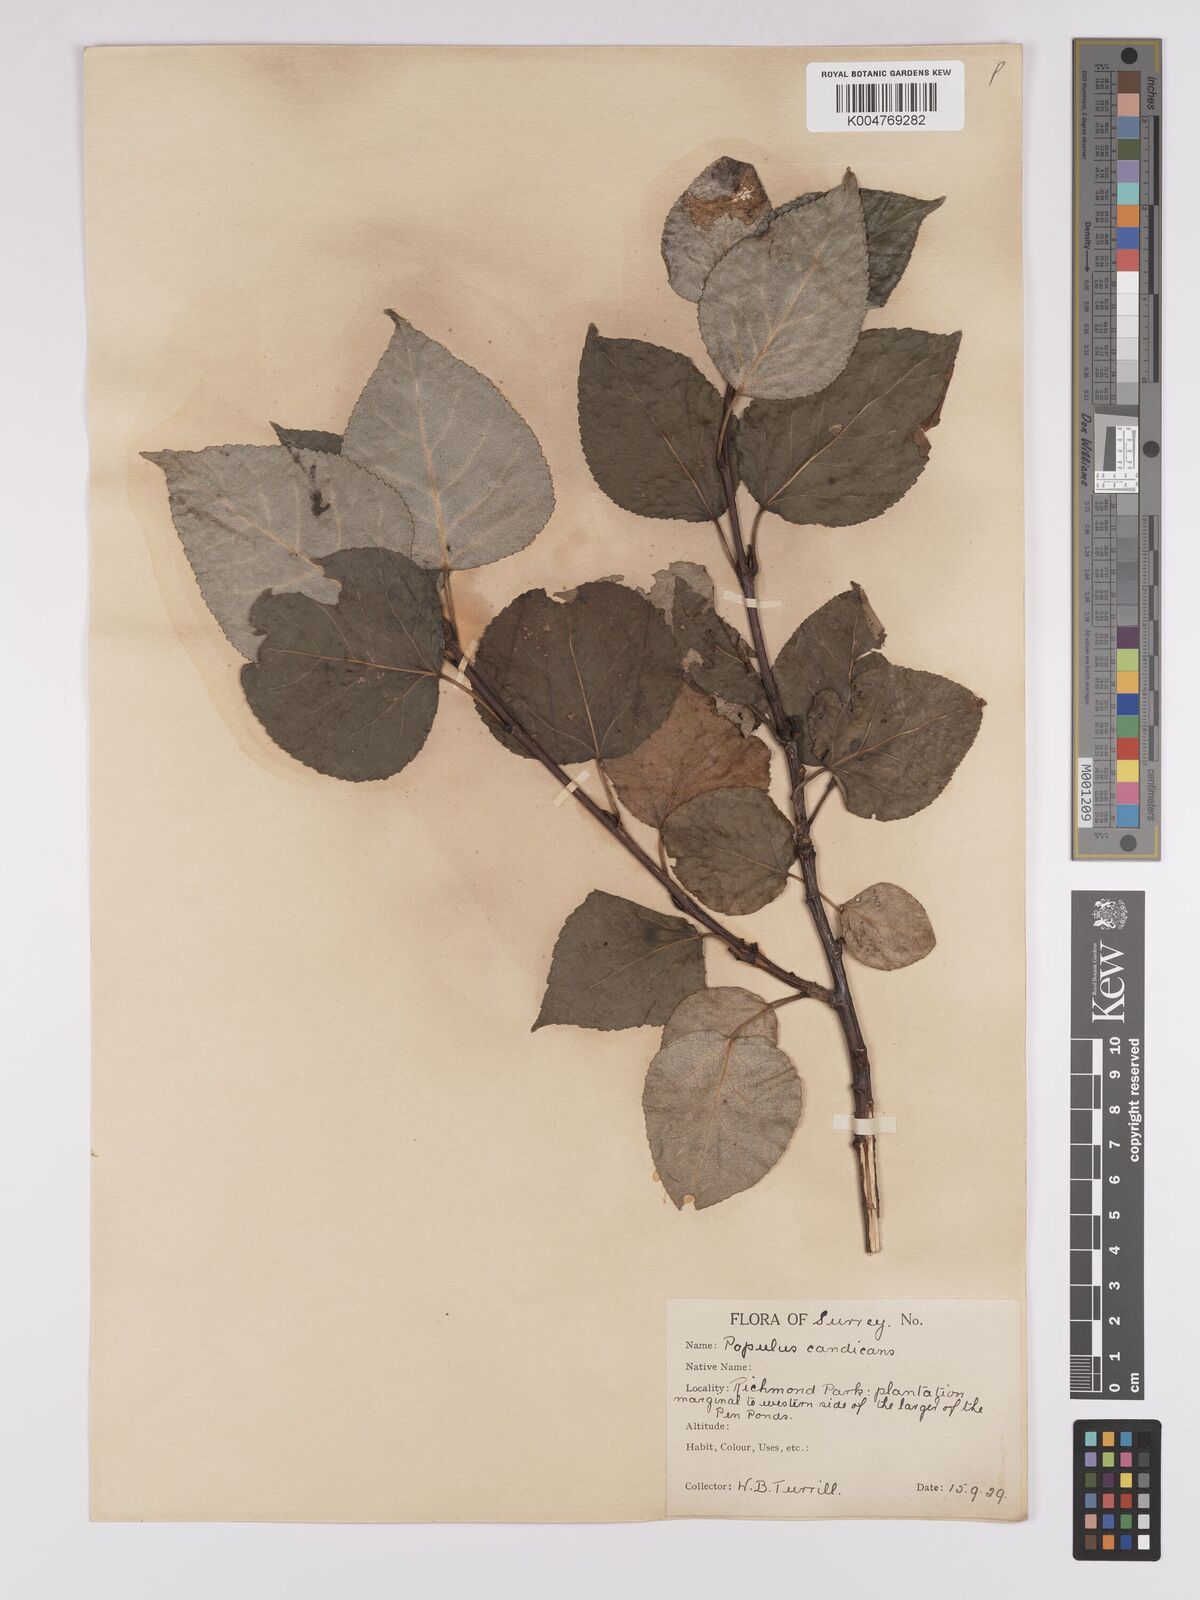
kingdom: Plantae
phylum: Tracheophyta
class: Magnoliopsida
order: Malpighiales
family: Salicaceae
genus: Populus
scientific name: Populus balsamifera
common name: Balsam poplar
